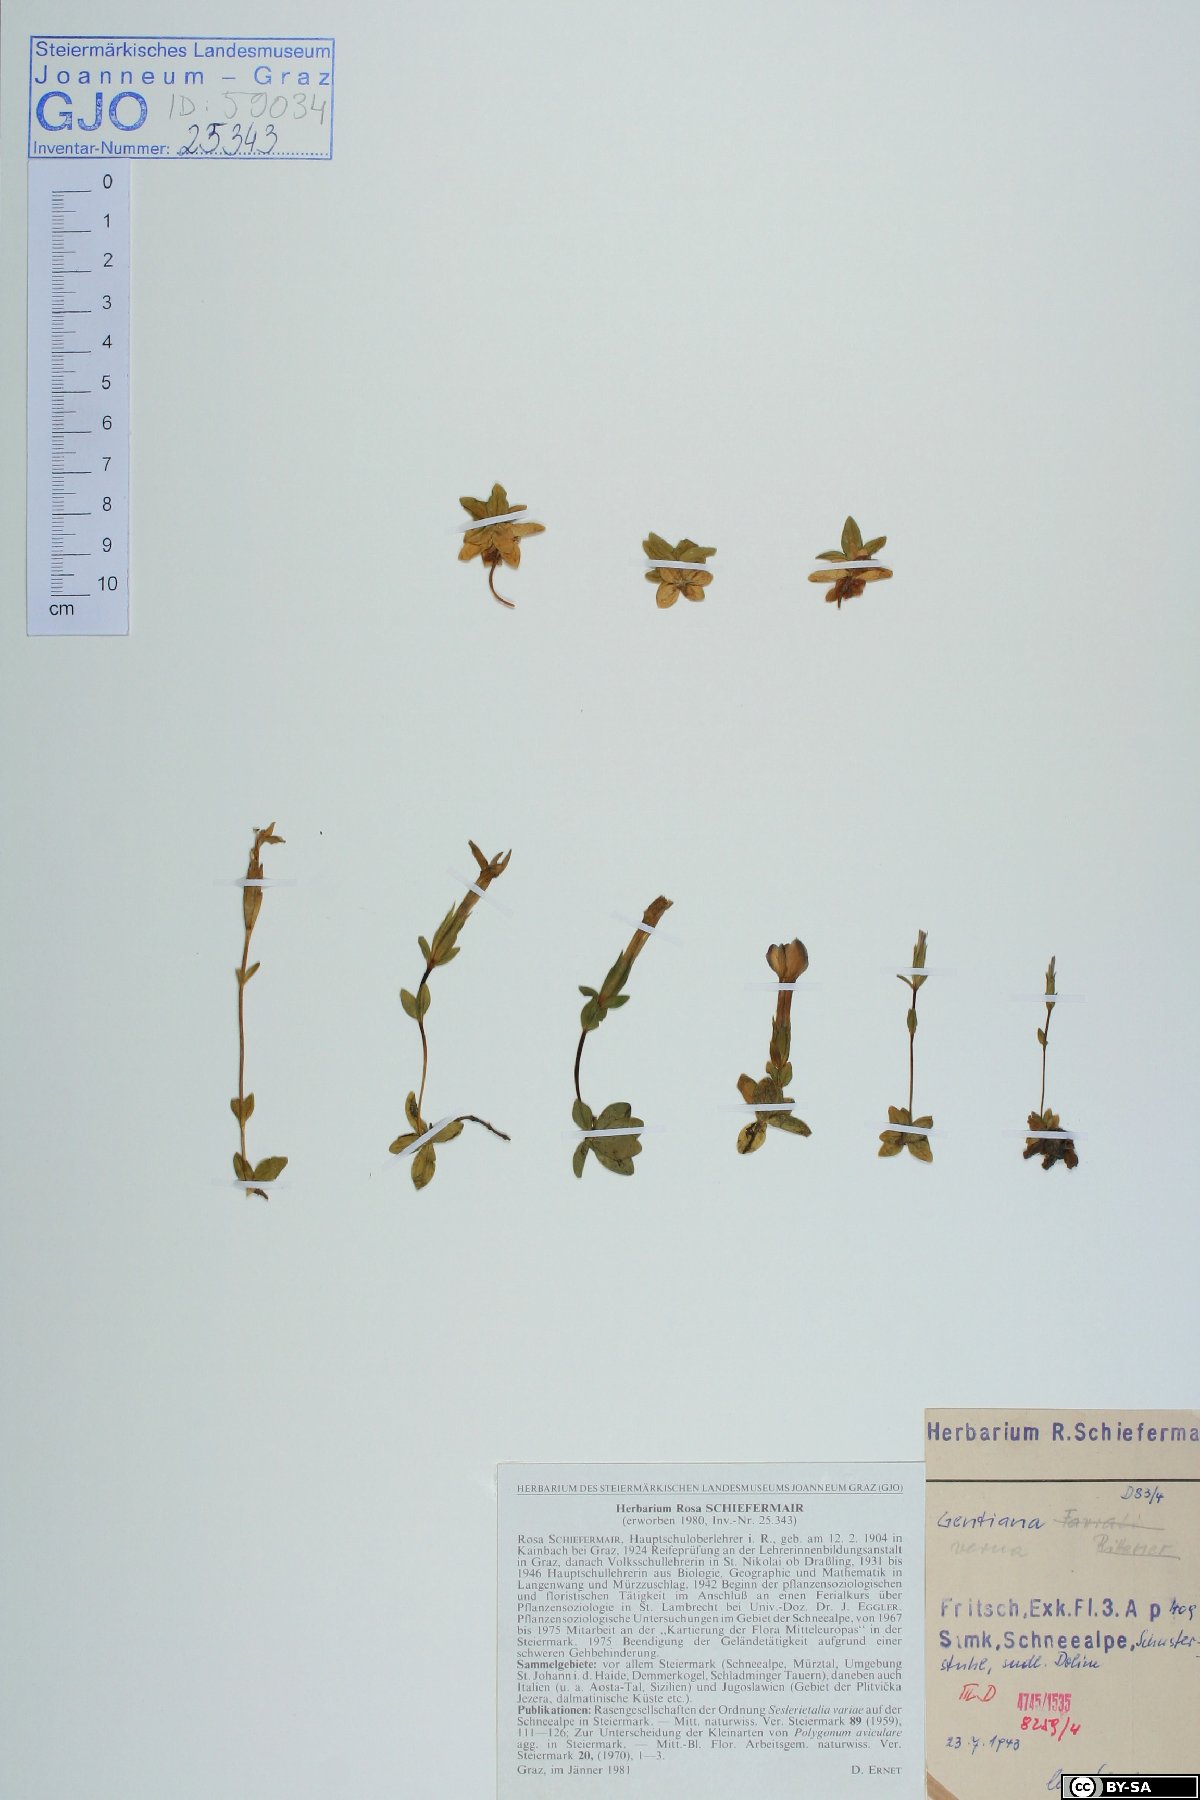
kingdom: Plantae
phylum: Tracheophyta
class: Magnoliopsida
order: Gentianales
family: Gentianaceae
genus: Gentiana
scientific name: Gentiana verna
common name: Spring gentian
